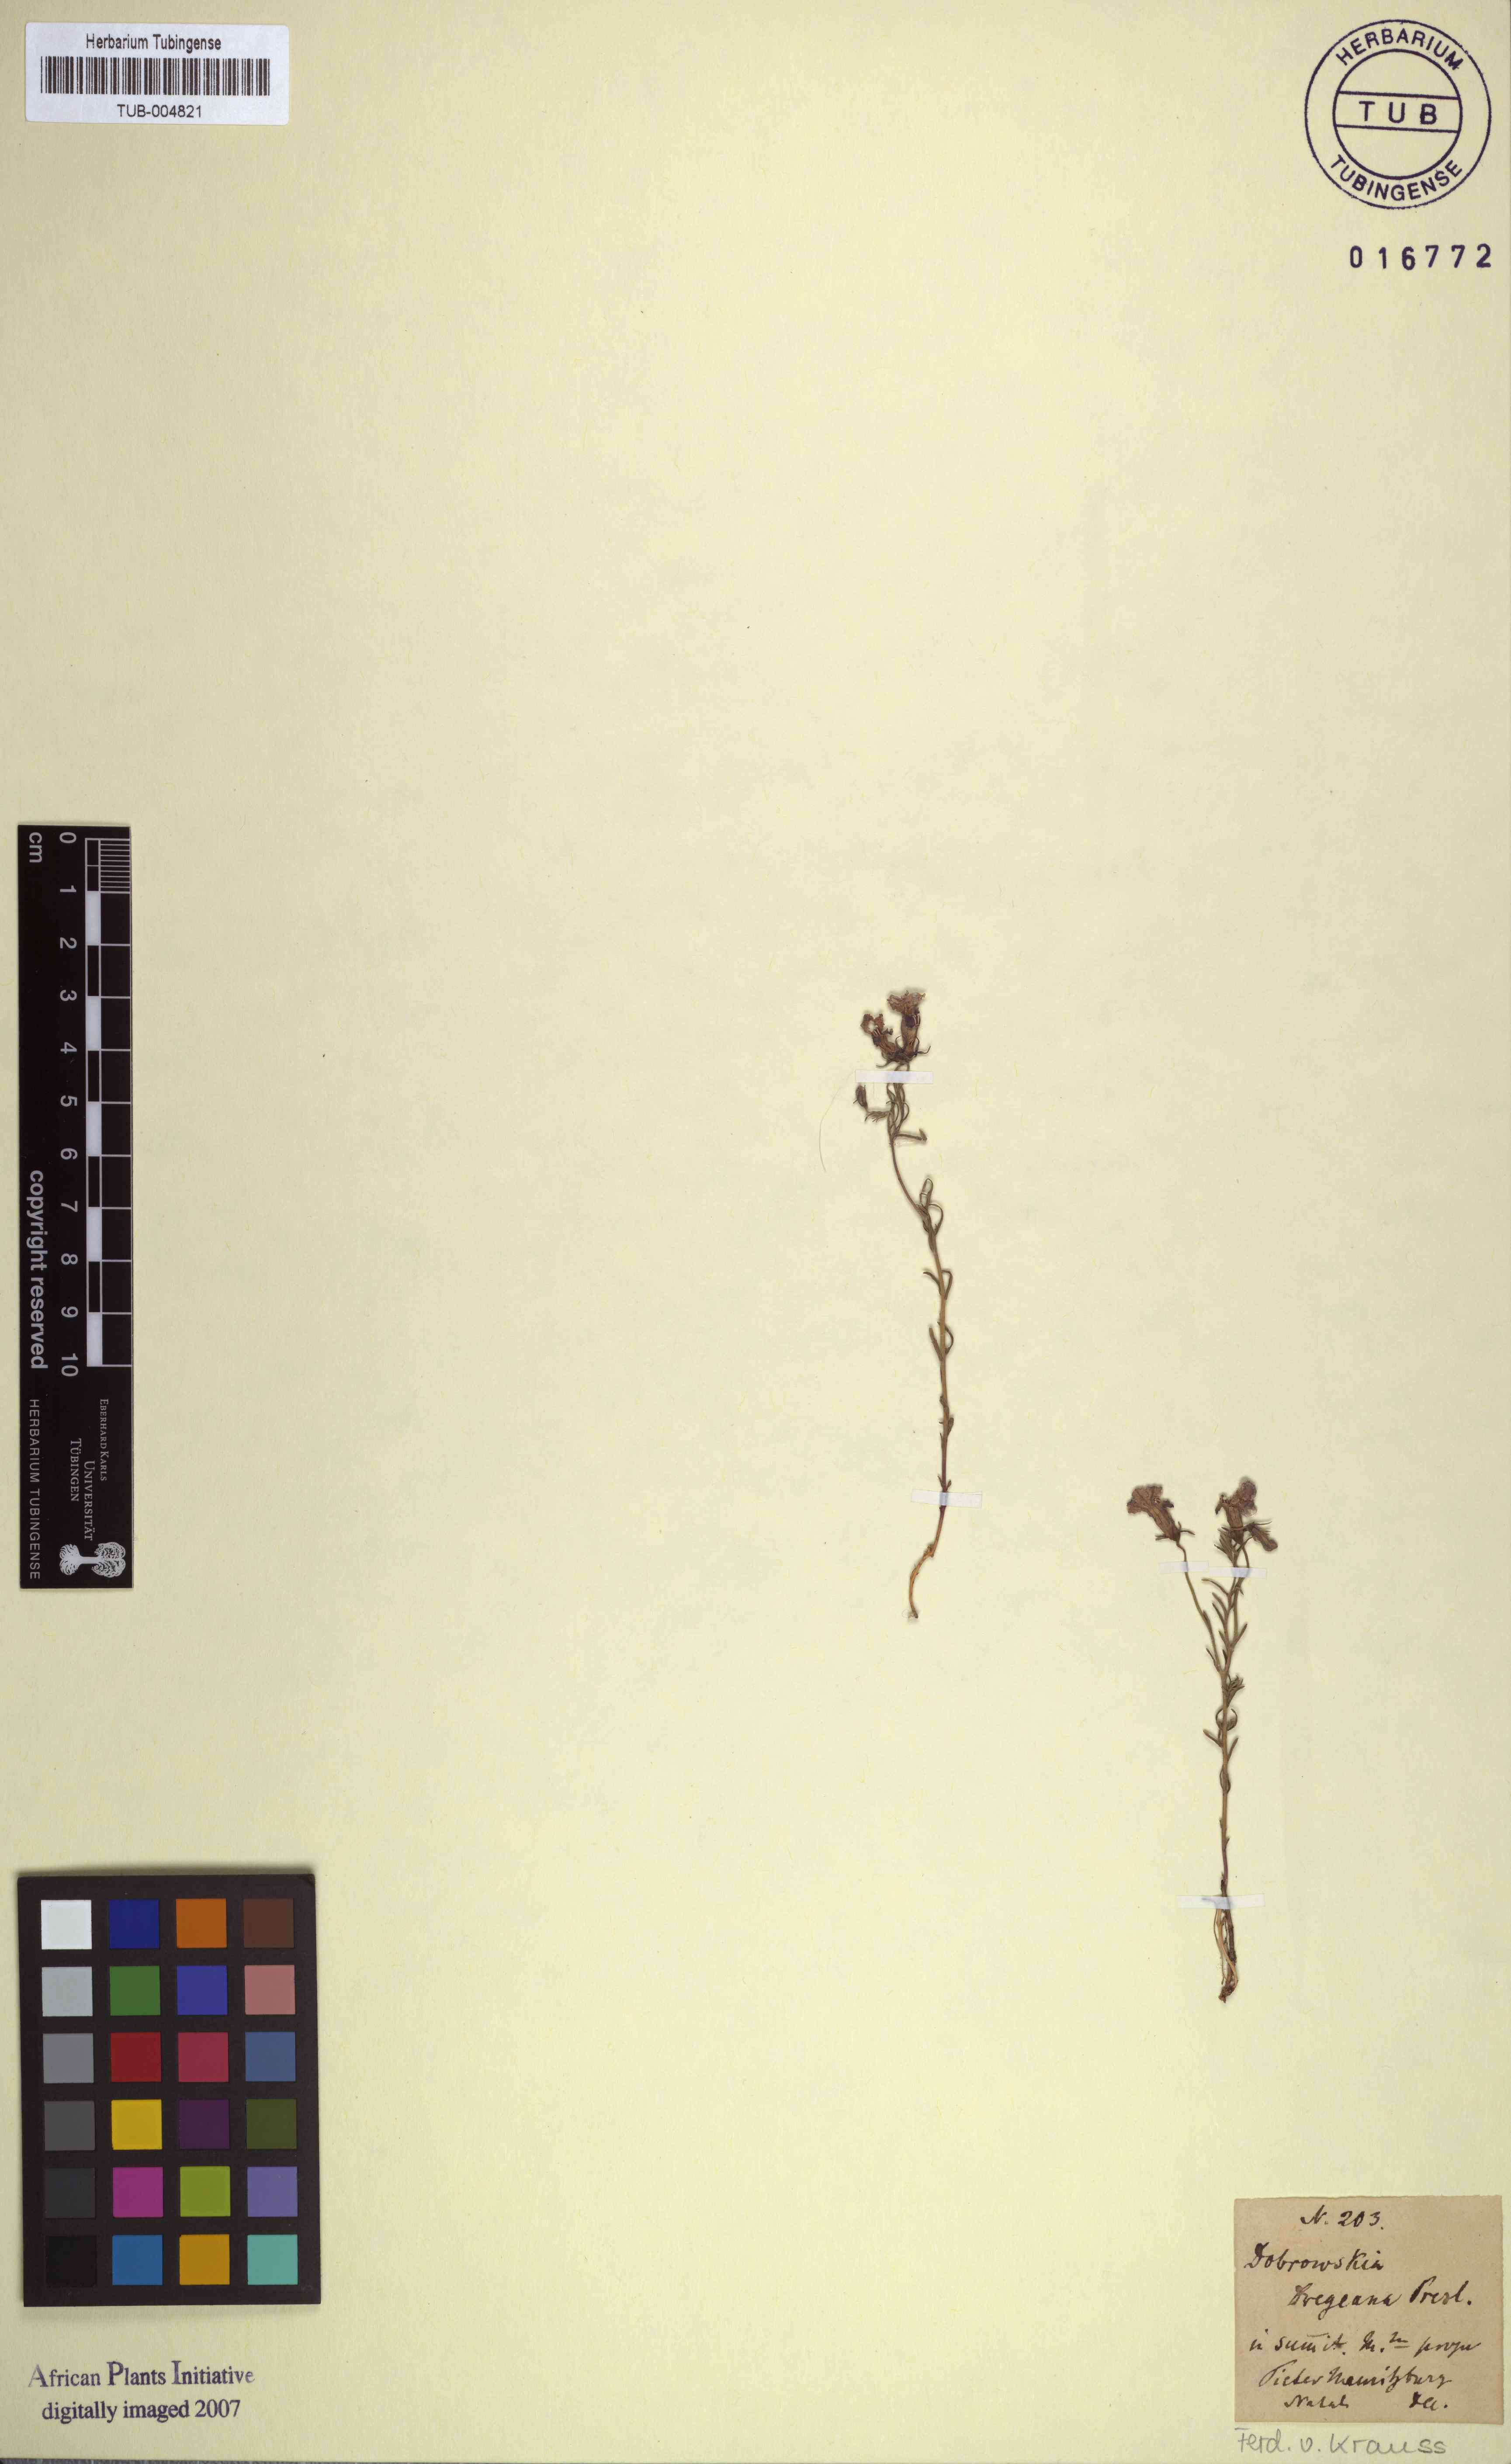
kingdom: Plantae
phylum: Tracheophyta
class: Magnoliopsida
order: Asterales
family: Campanulaceae
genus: Monopsis
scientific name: Monopsis scabra
